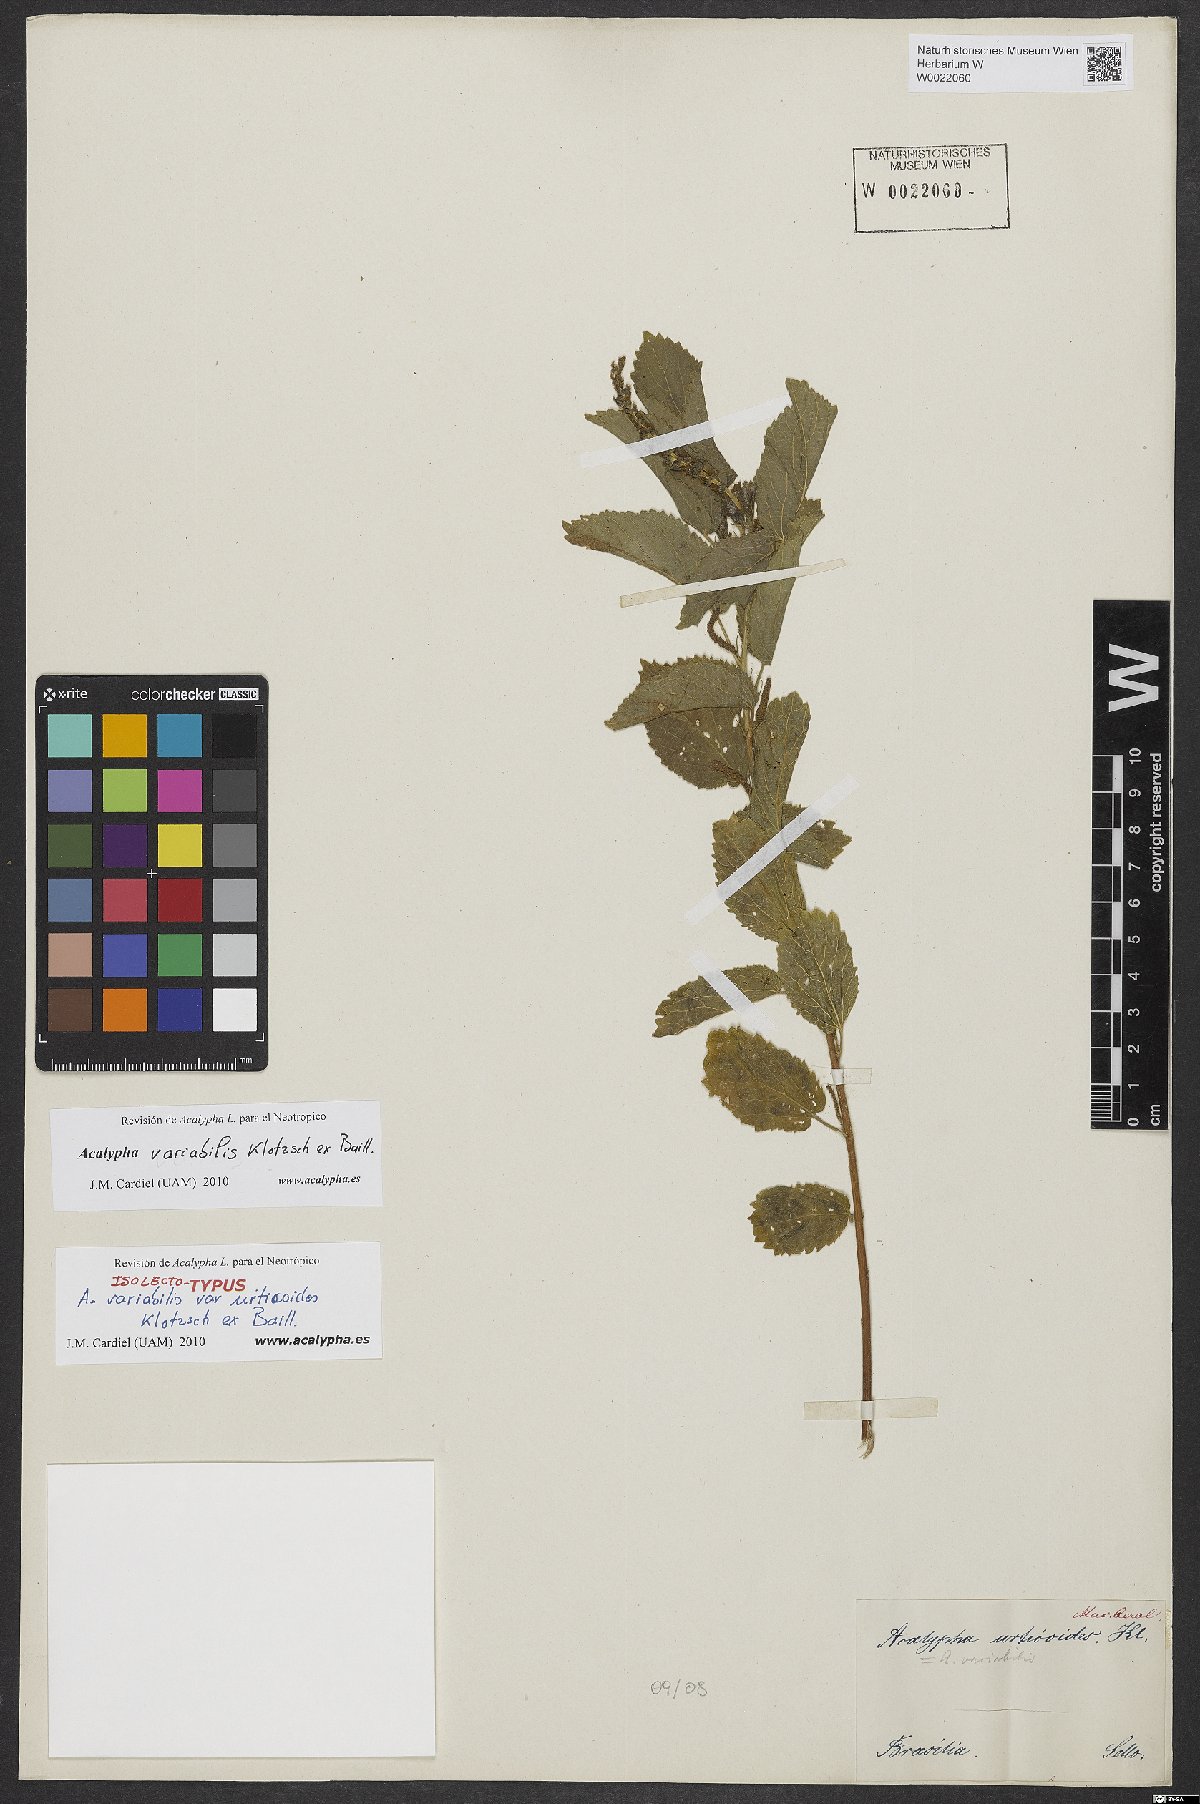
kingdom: Plantae
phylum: Tracheophyta
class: Magnoliopsida
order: Malpighiales
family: Euphorbiaceae
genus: Acalypha
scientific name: Acalypha variabilis
